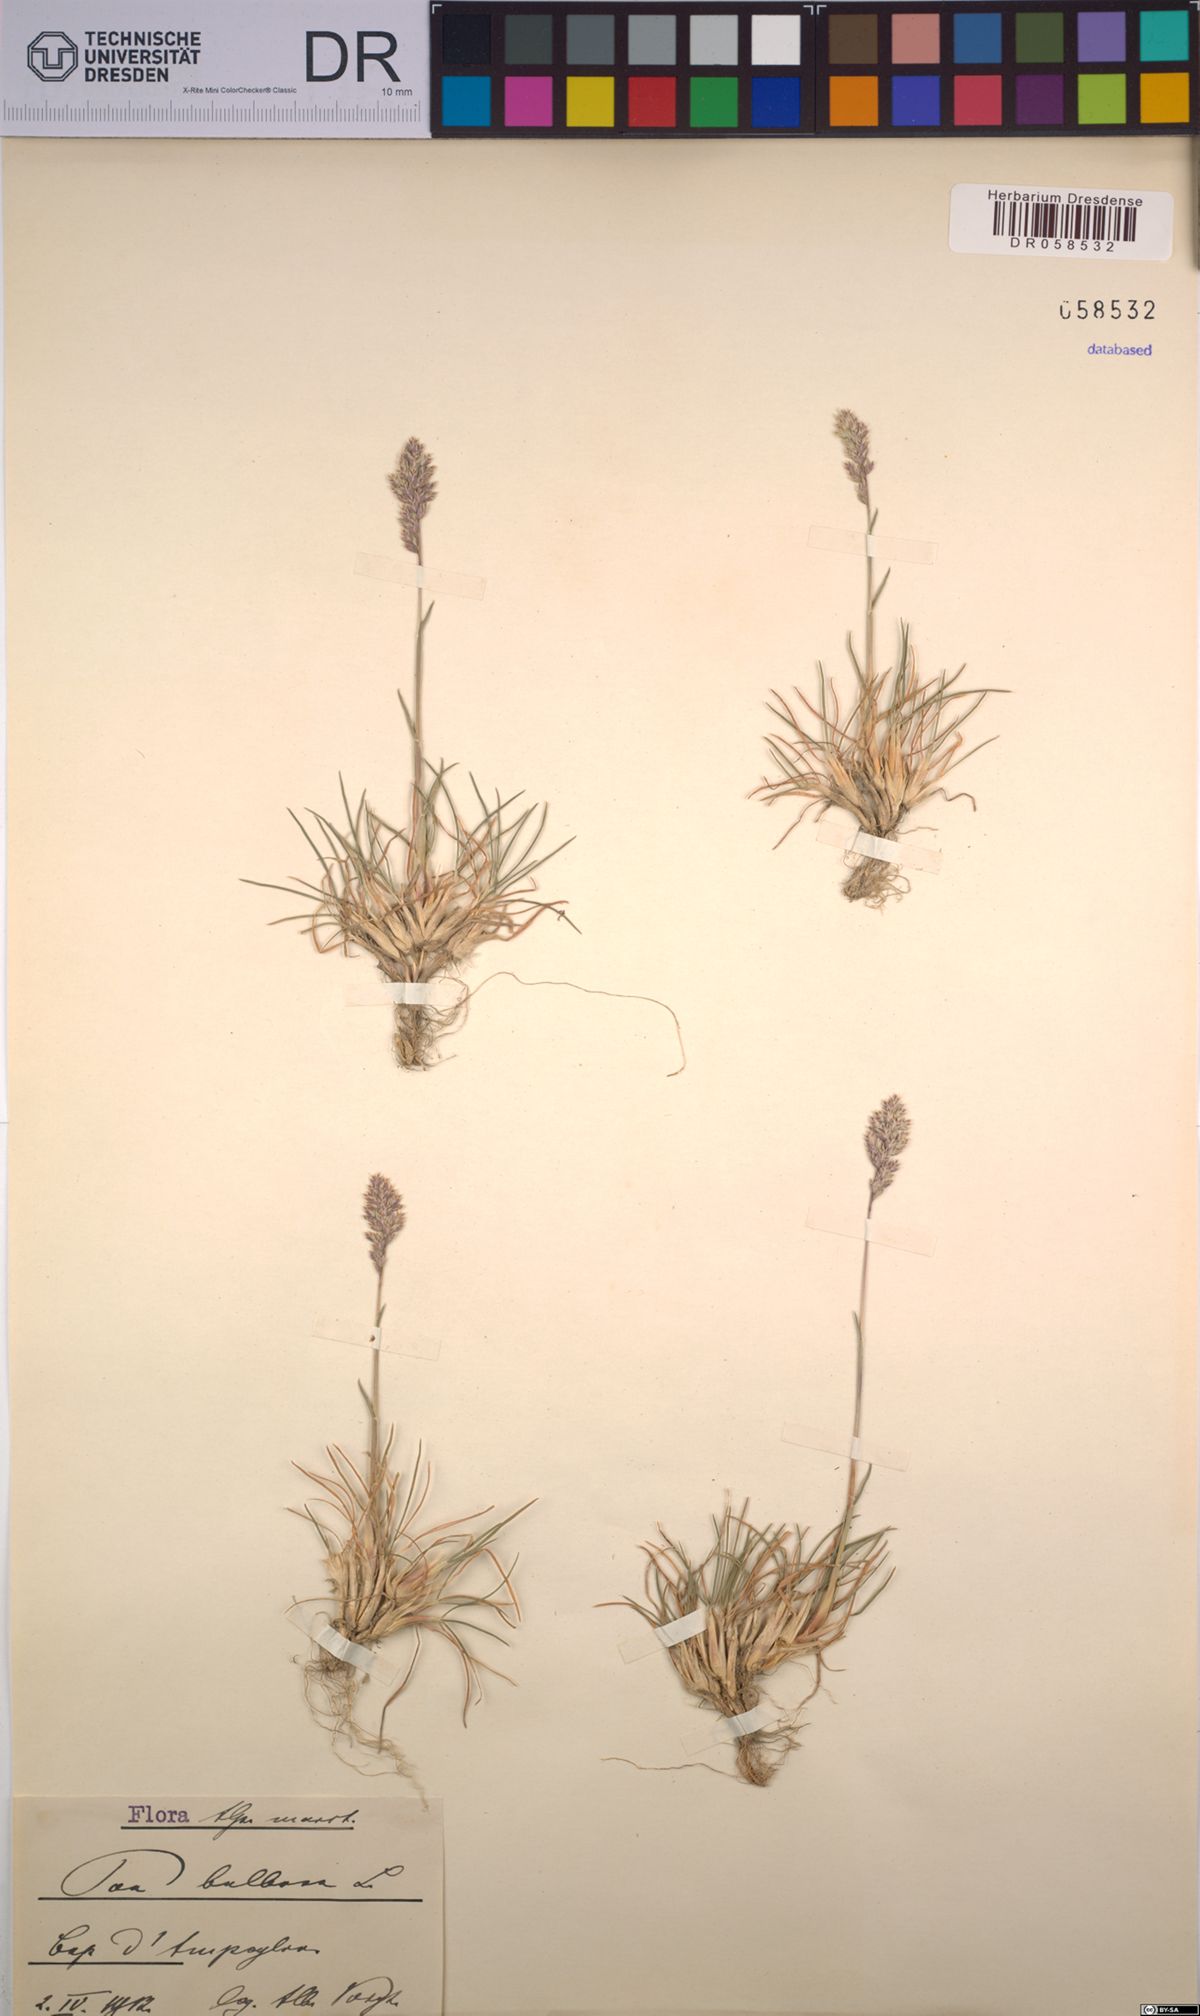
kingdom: Plantae
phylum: Tracheophyta
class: Liliopsida
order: Poales
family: Poaceae
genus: Poa
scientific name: Poa bulbosa
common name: Bulbous bluegrass
